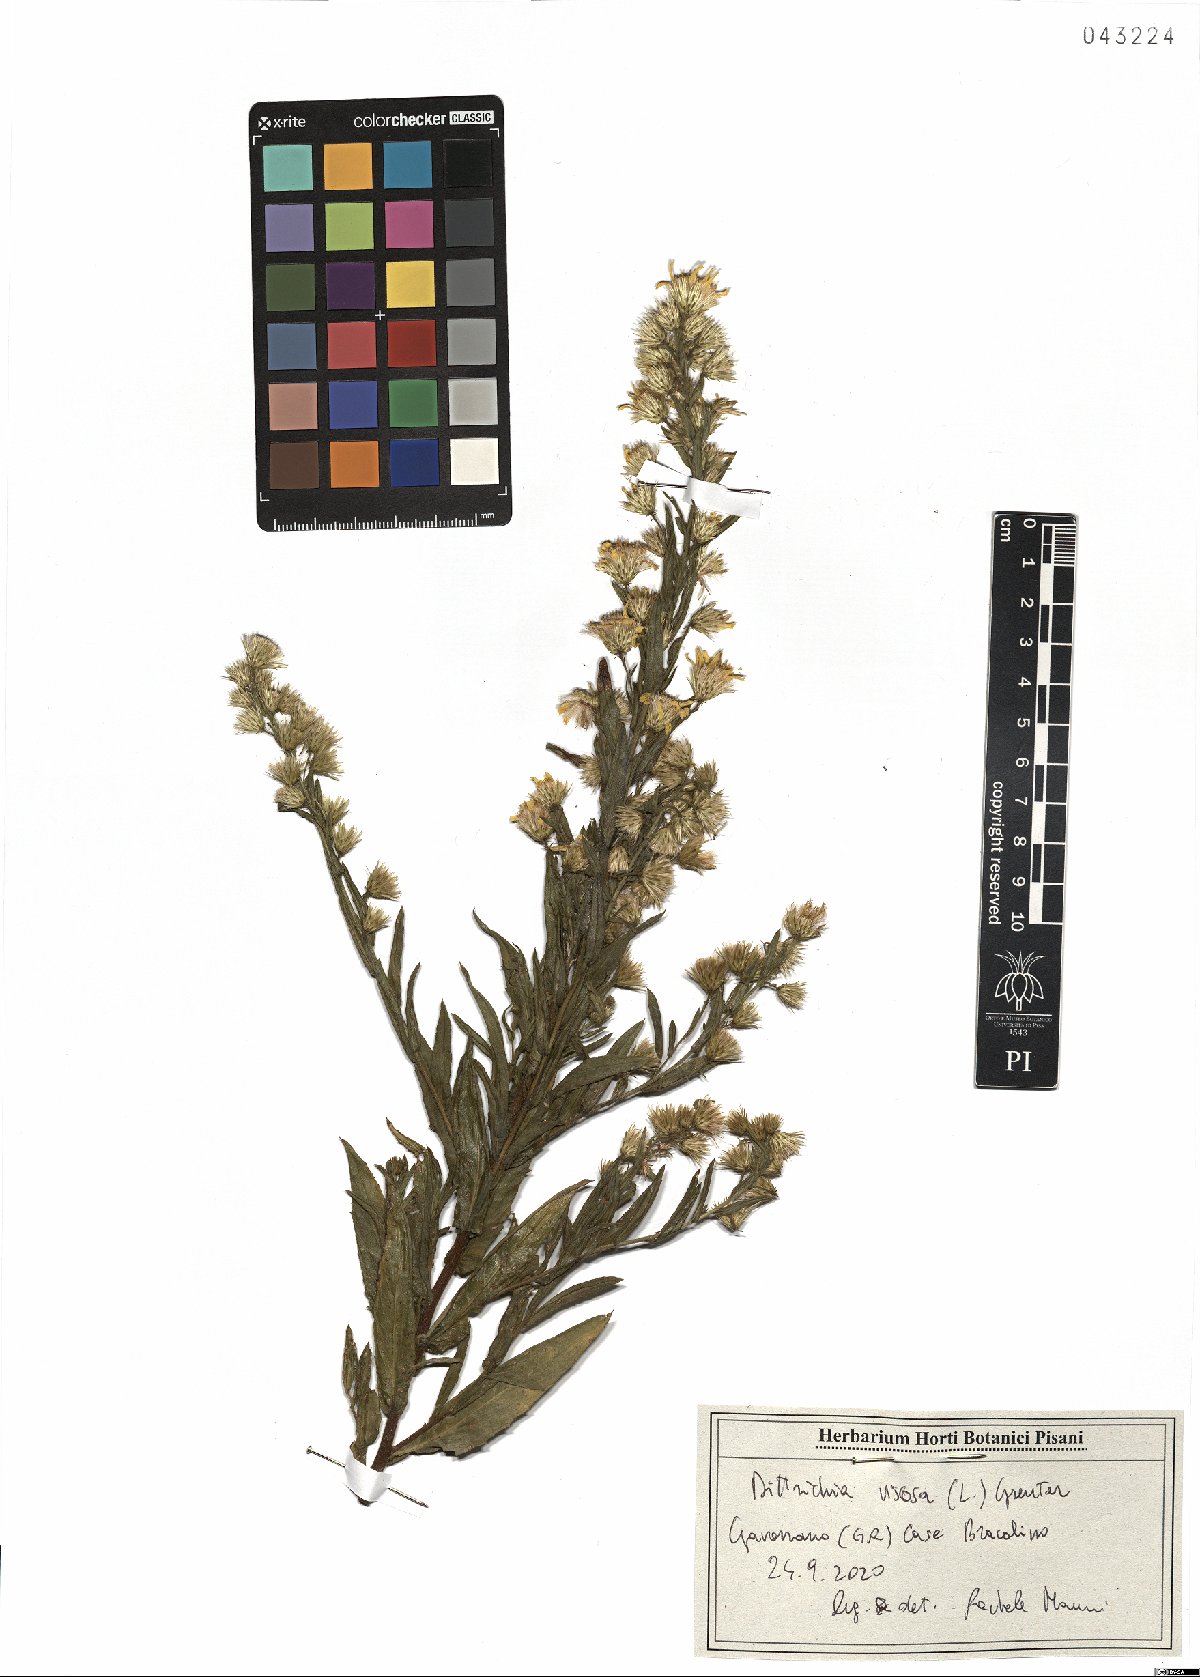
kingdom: Plantae
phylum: Tracheophyta
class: Magnoliopsida
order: Asterales
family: Asteraceae
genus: Dittrichia
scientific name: Dittrichia viscosa
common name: Woody fleabane
